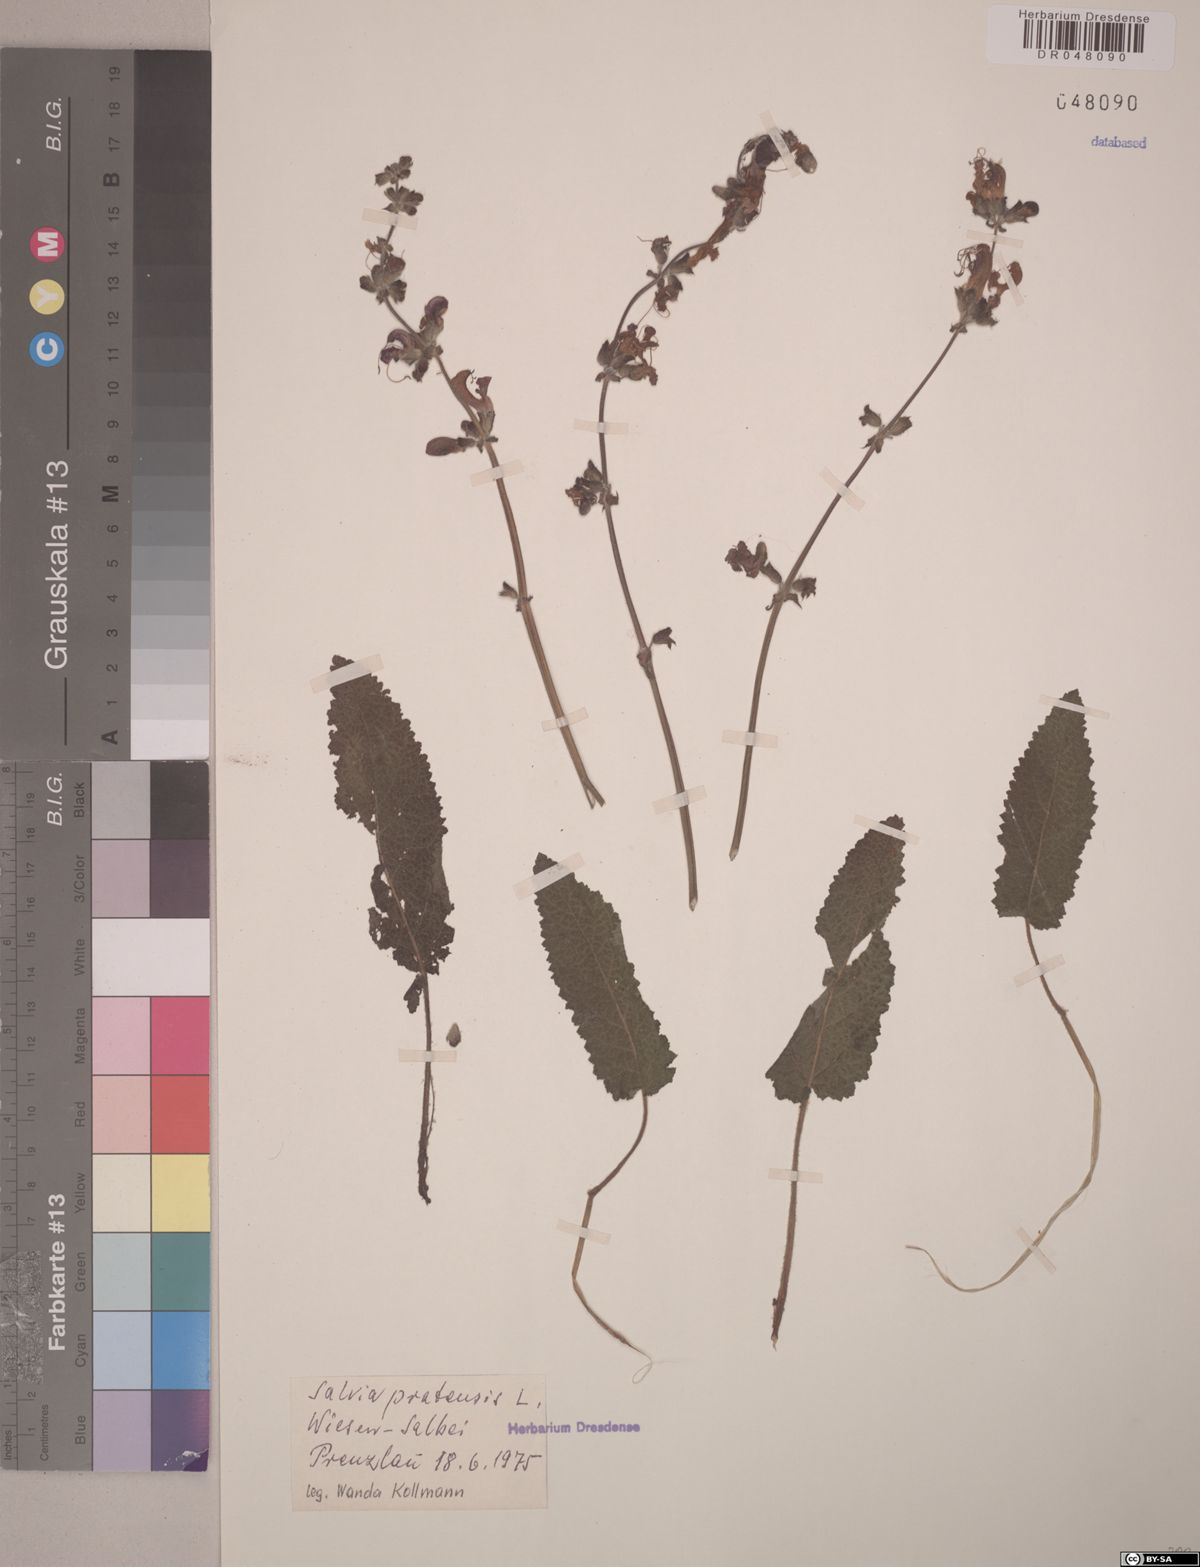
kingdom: Plantae
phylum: Tracheophyta
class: Magnoliopsida
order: Lamiales
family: Lamiaceae
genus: Salvia
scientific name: Salvia pratensis
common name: Meadow sage
